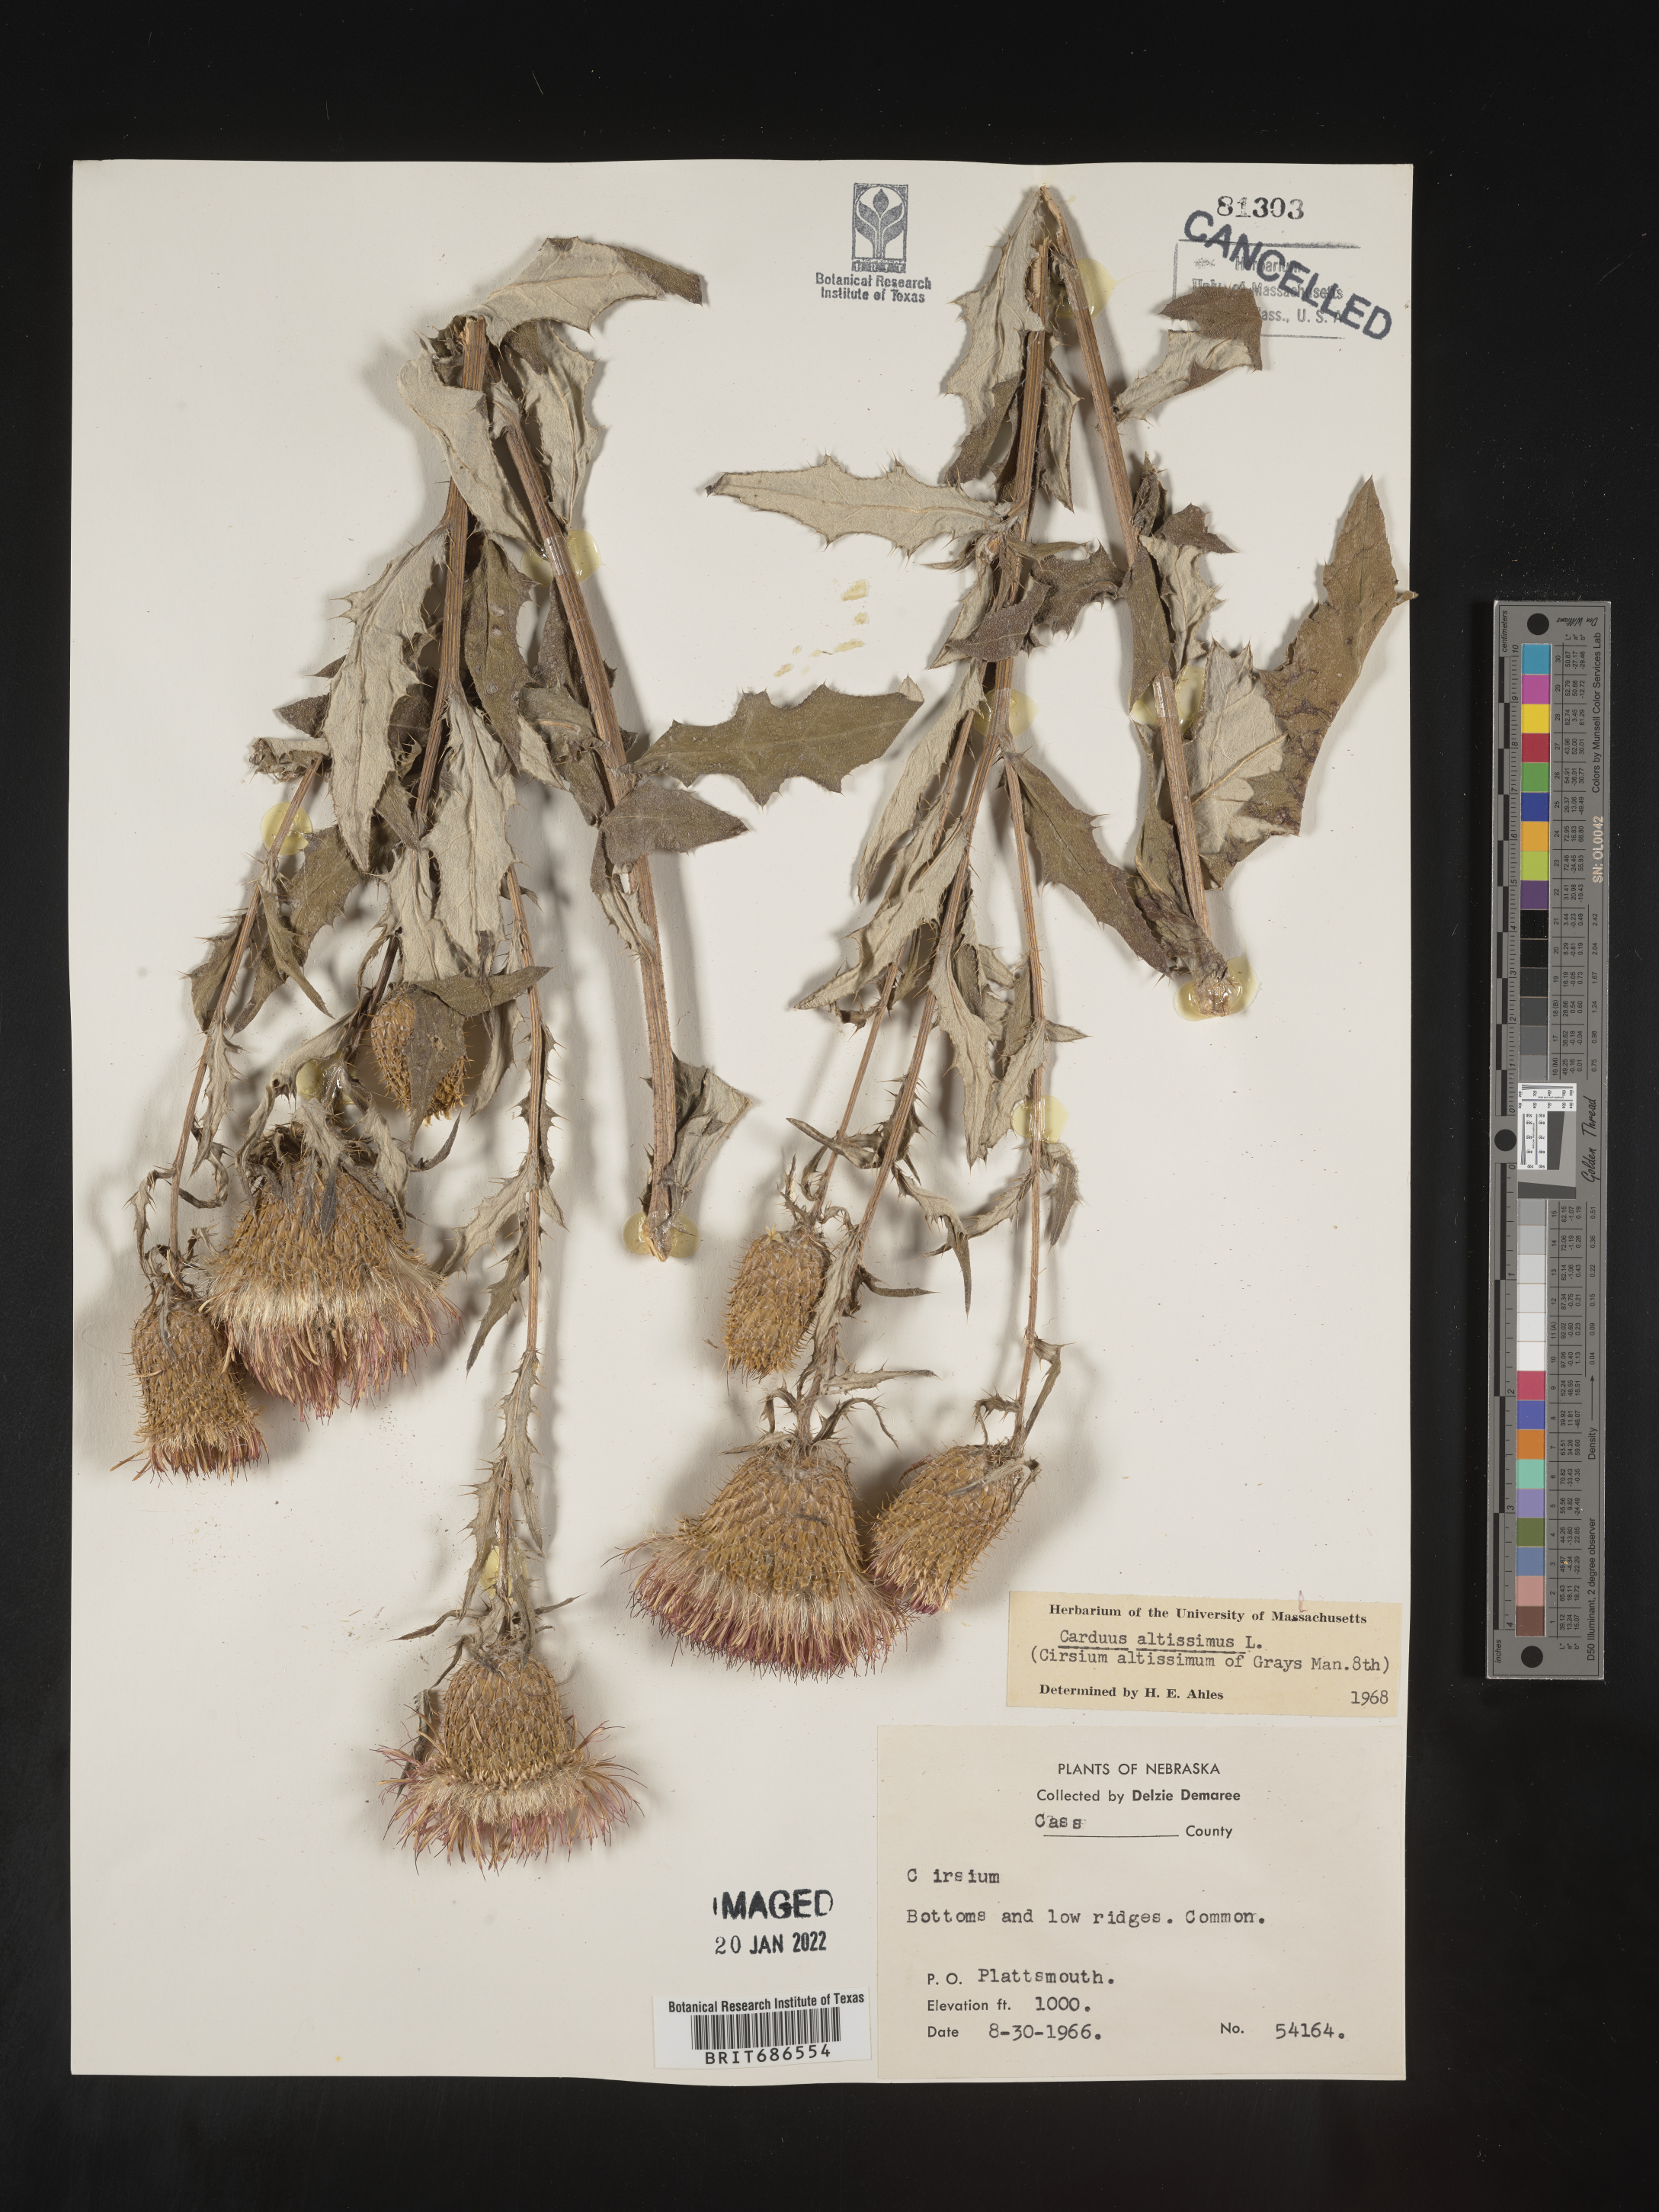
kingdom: Plantae
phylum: Tracheophyta
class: Magnoliopsida
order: Asterales
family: Asteraceae
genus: Cirsium
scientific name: Cirsium palustre
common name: Marsh thistle
